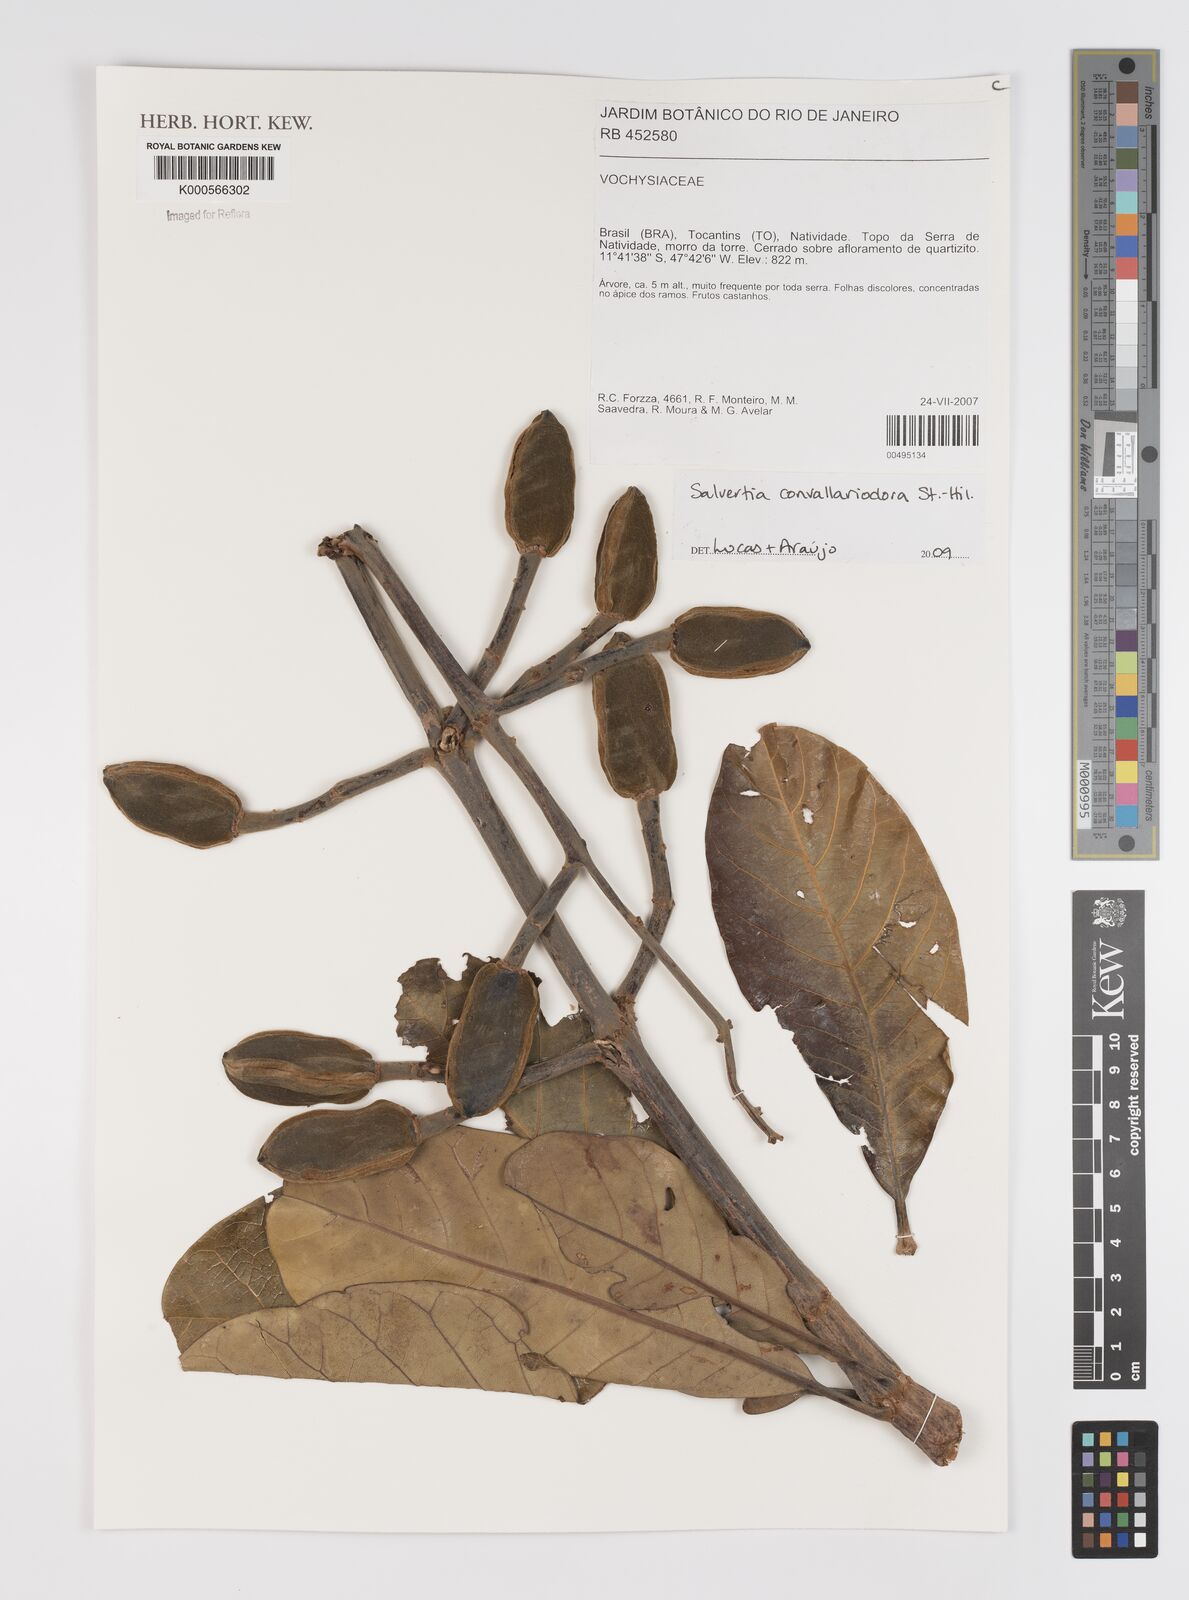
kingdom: Plantae
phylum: Tracheophyta
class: Magnoliopsida
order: Myrtales
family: Vochysiaceae
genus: Salvertia
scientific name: Salvertia convallariodora
